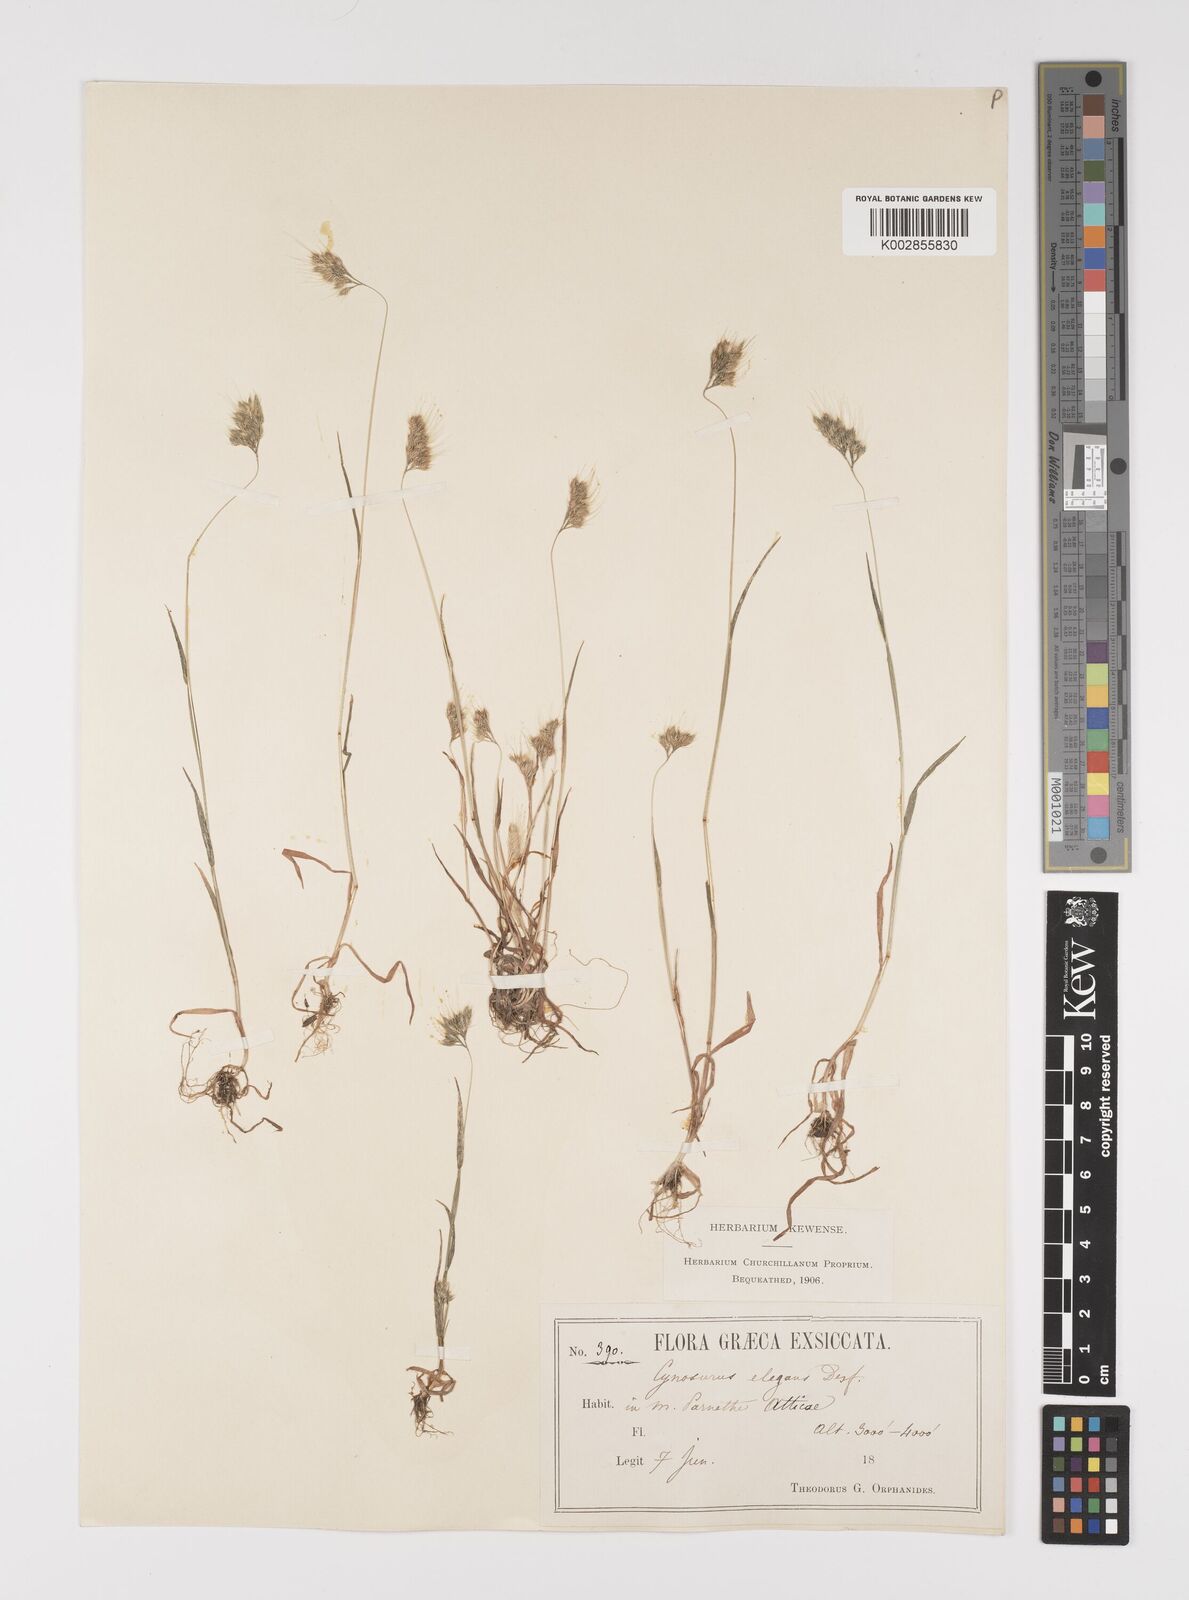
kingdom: Plantae
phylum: Tracheophyta
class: Liliopsida
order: Poales
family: Poaceae
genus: Cynosurus
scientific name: Cynosurus elegans
